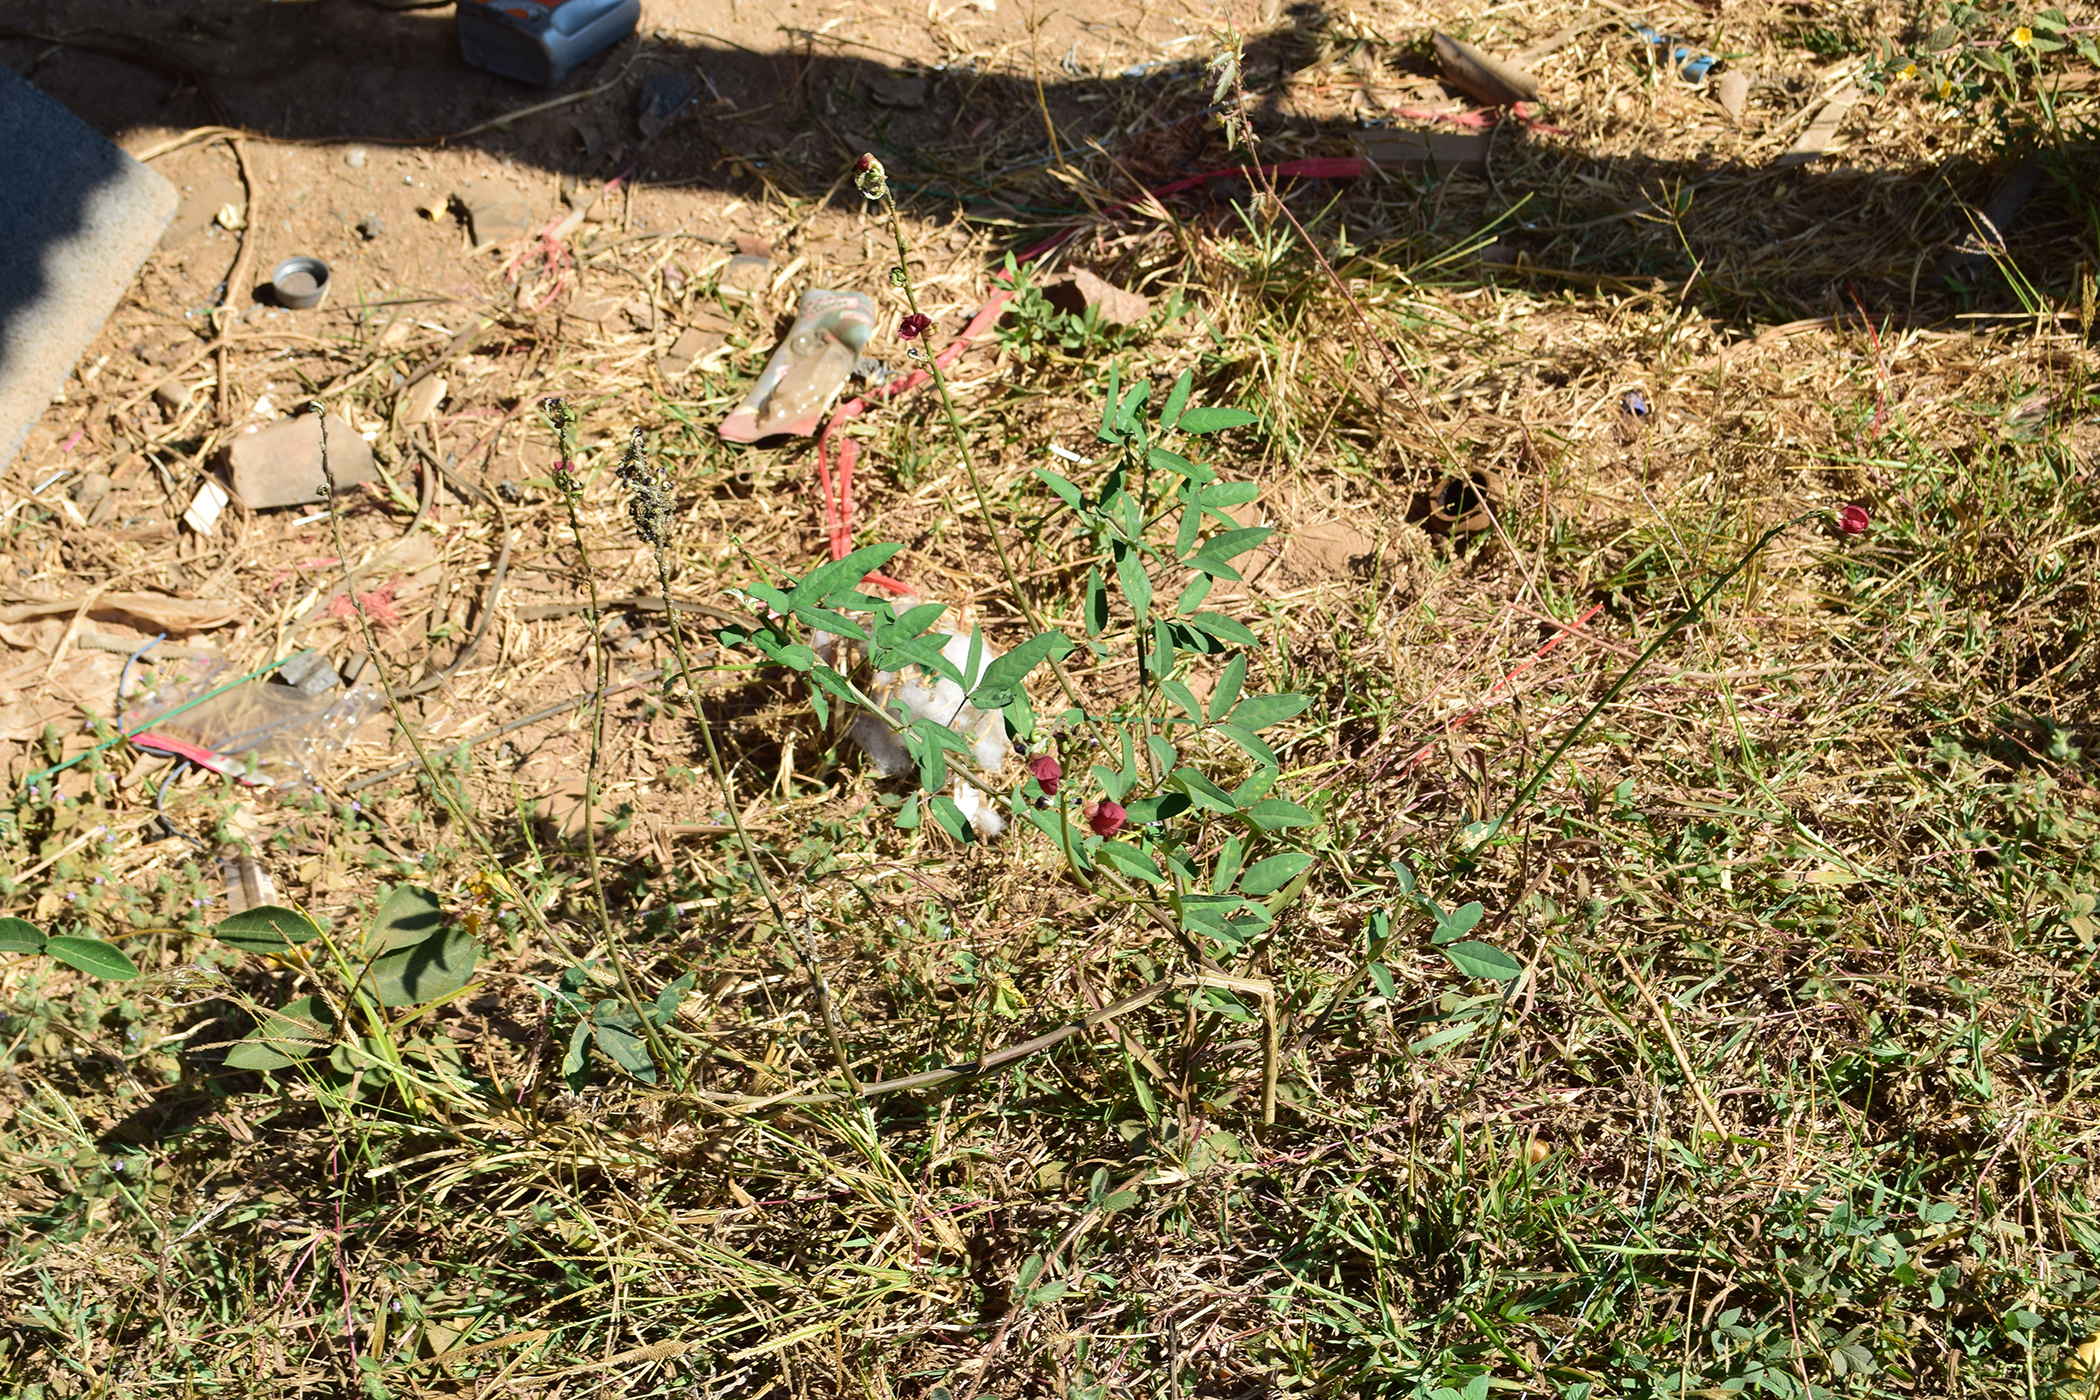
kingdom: Plantae
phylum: Tracheophyta
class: Magnoliopsida
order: Fabales
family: Fabaceae
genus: Macroptilium
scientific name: Macroptilium lathyroides
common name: Wild bushbean
